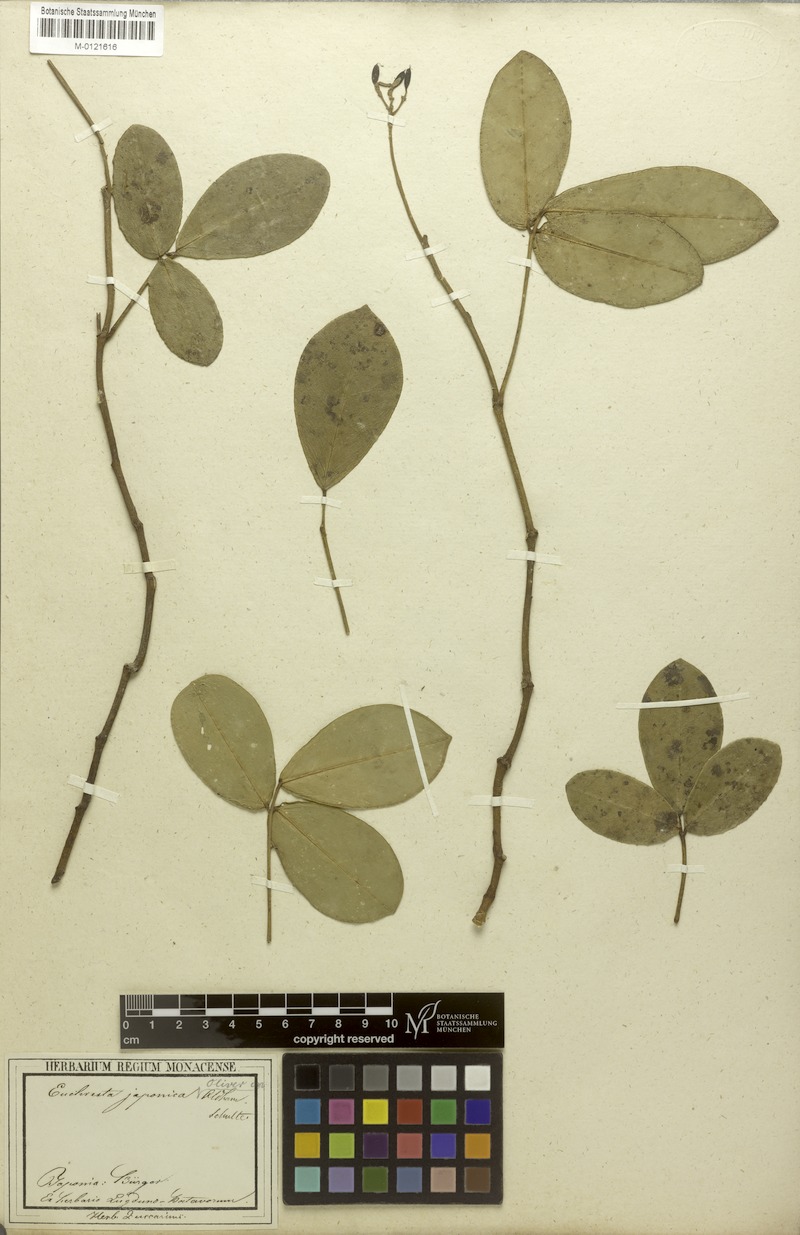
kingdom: Plantae
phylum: Tracheophyta
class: Magnoliopsida
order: Fabales
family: Fabaceae
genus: Euchresta
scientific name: Euchresta japonica
